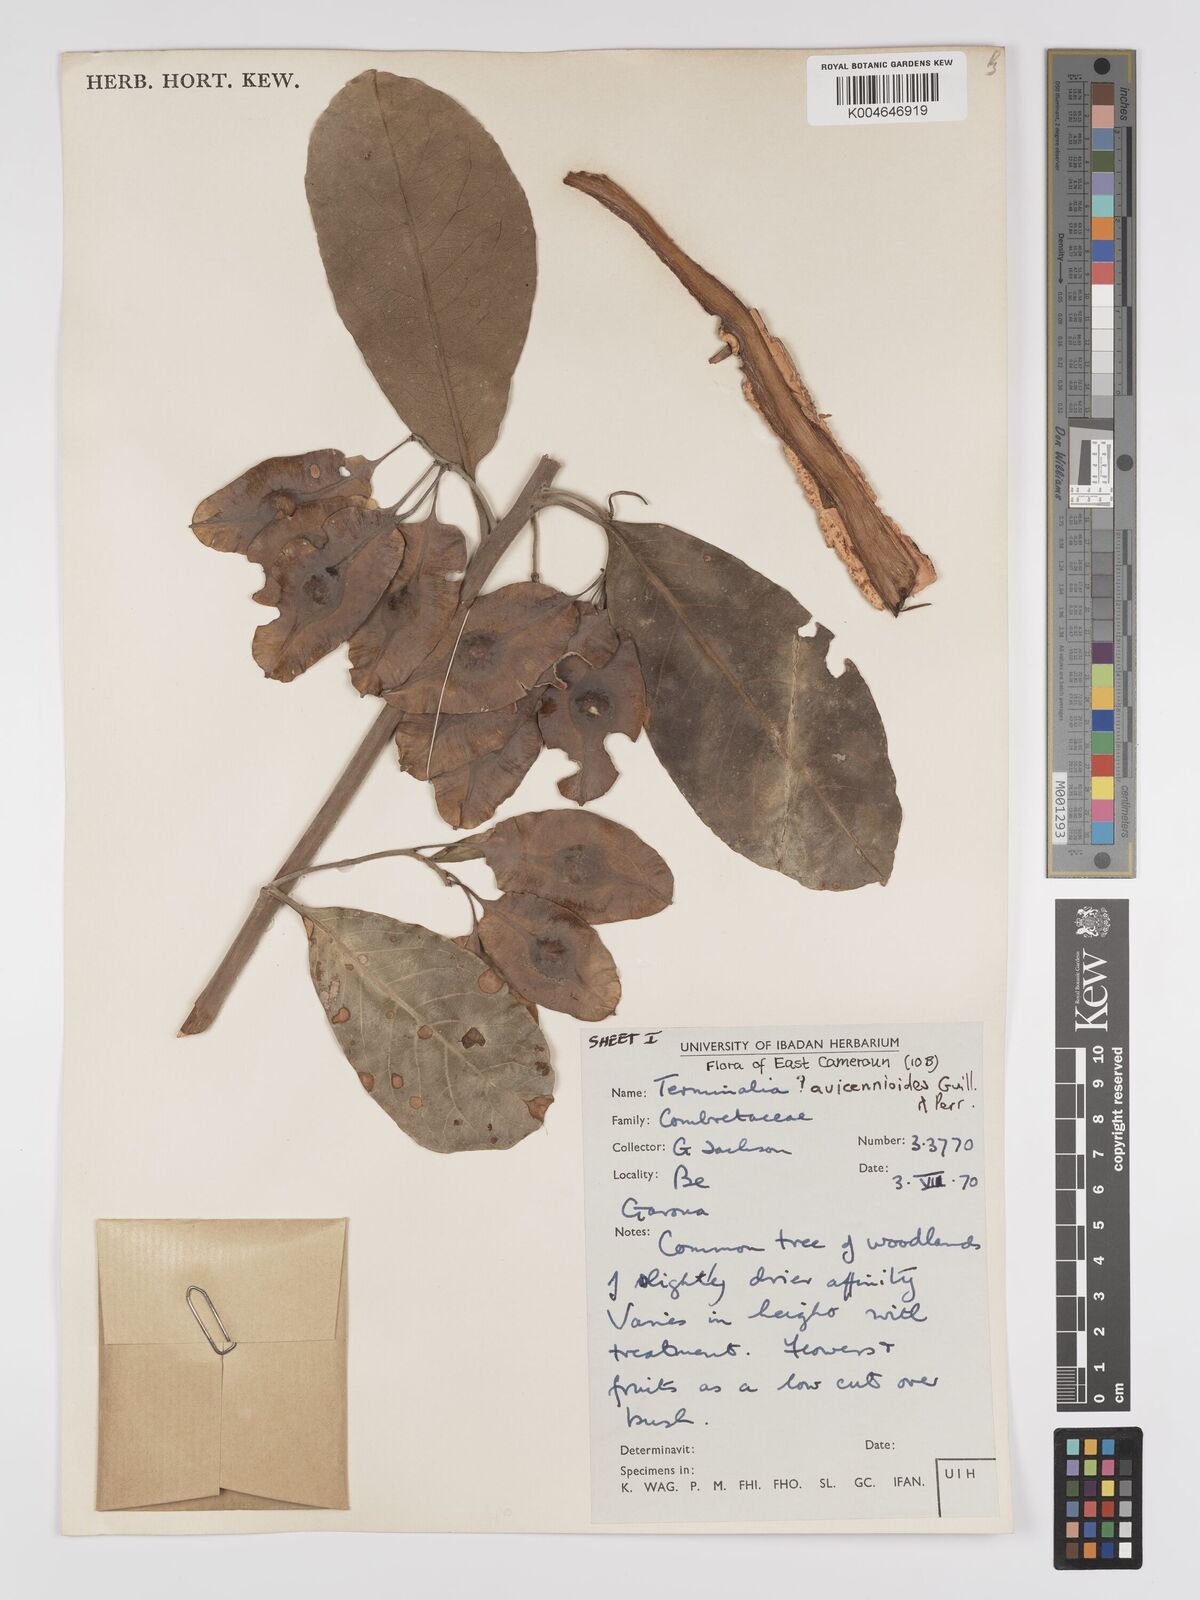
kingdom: Plantae
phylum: Tracheophyta
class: Magnoliopsida
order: Myrtales
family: Combretaceae
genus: Terminalia
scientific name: Terminalia avicennioides
